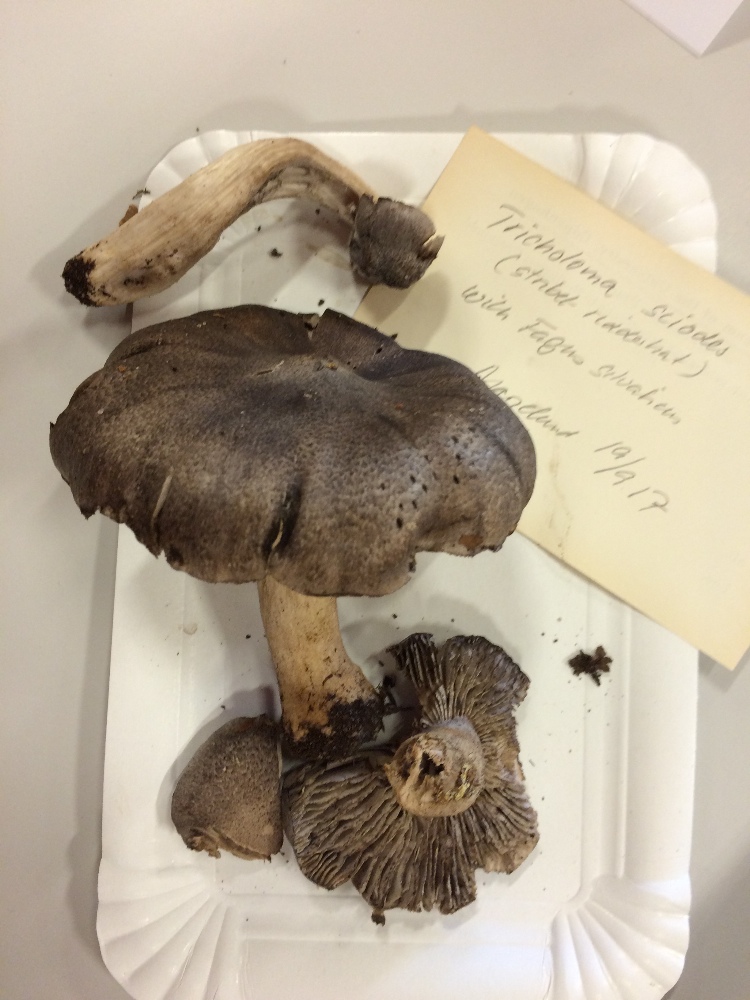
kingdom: Fungi
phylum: Basidiomycota
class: Agaricomycetes
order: Agaricales
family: Tricholomataceae
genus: Tricholoma
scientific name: Tricholoma sciodes
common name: stribet ridderhat
